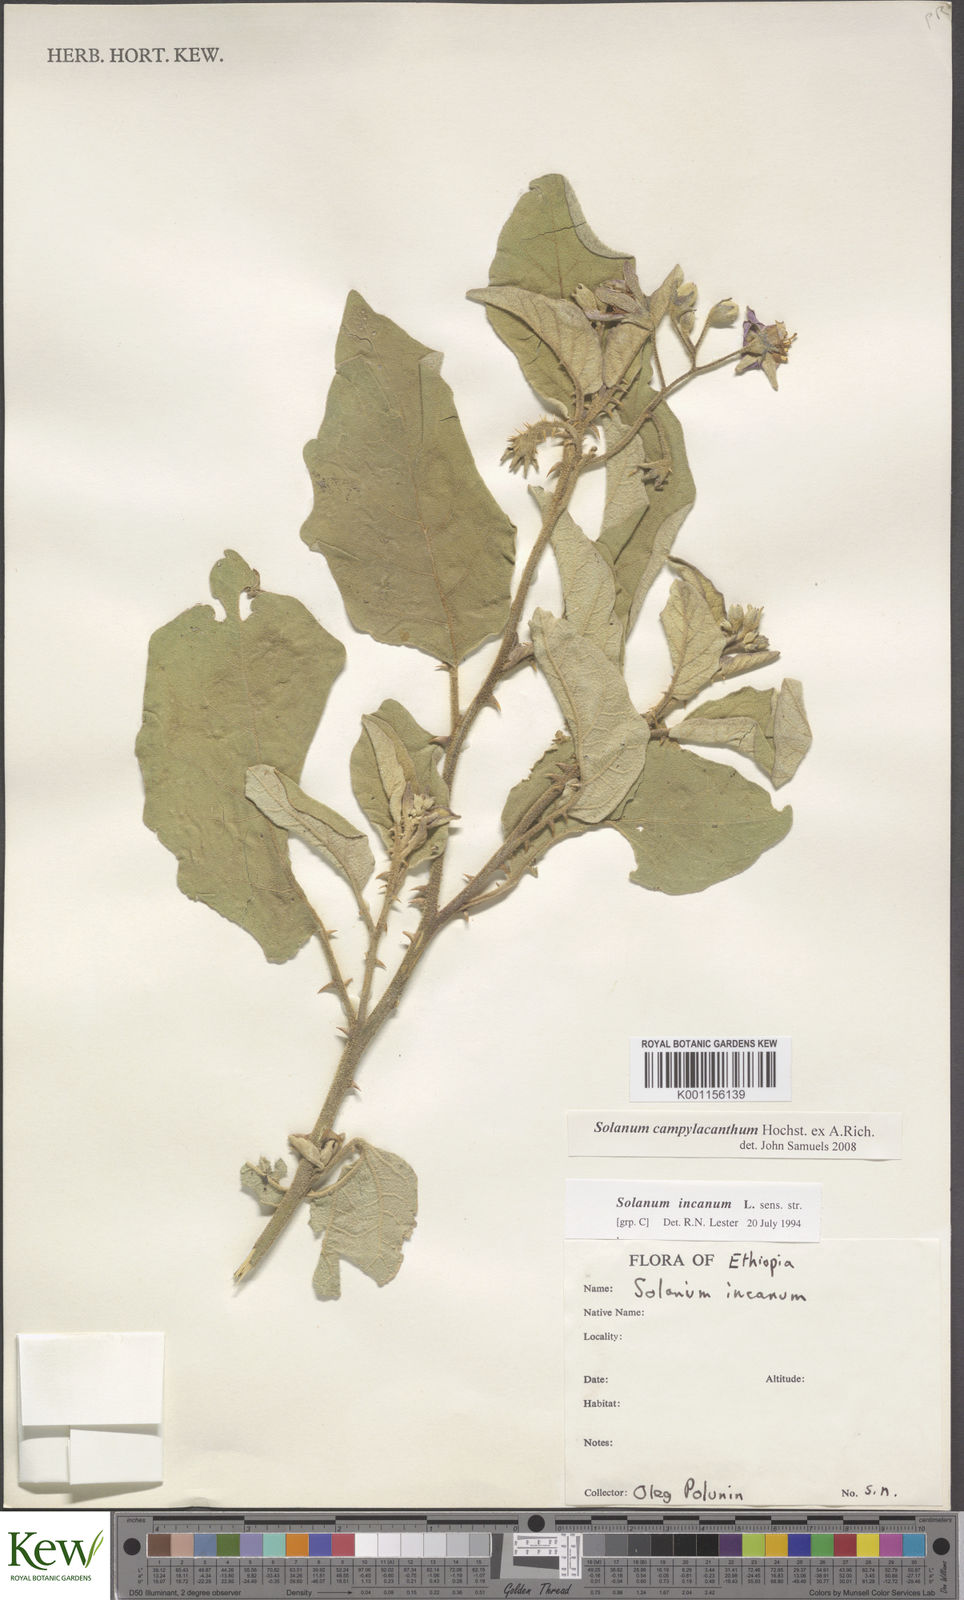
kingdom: Plantae
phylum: Tracheophyta
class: Magnoliopsida
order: Solanales
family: Solanaceae
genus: Solanum
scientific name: Solanum campylacanthum
